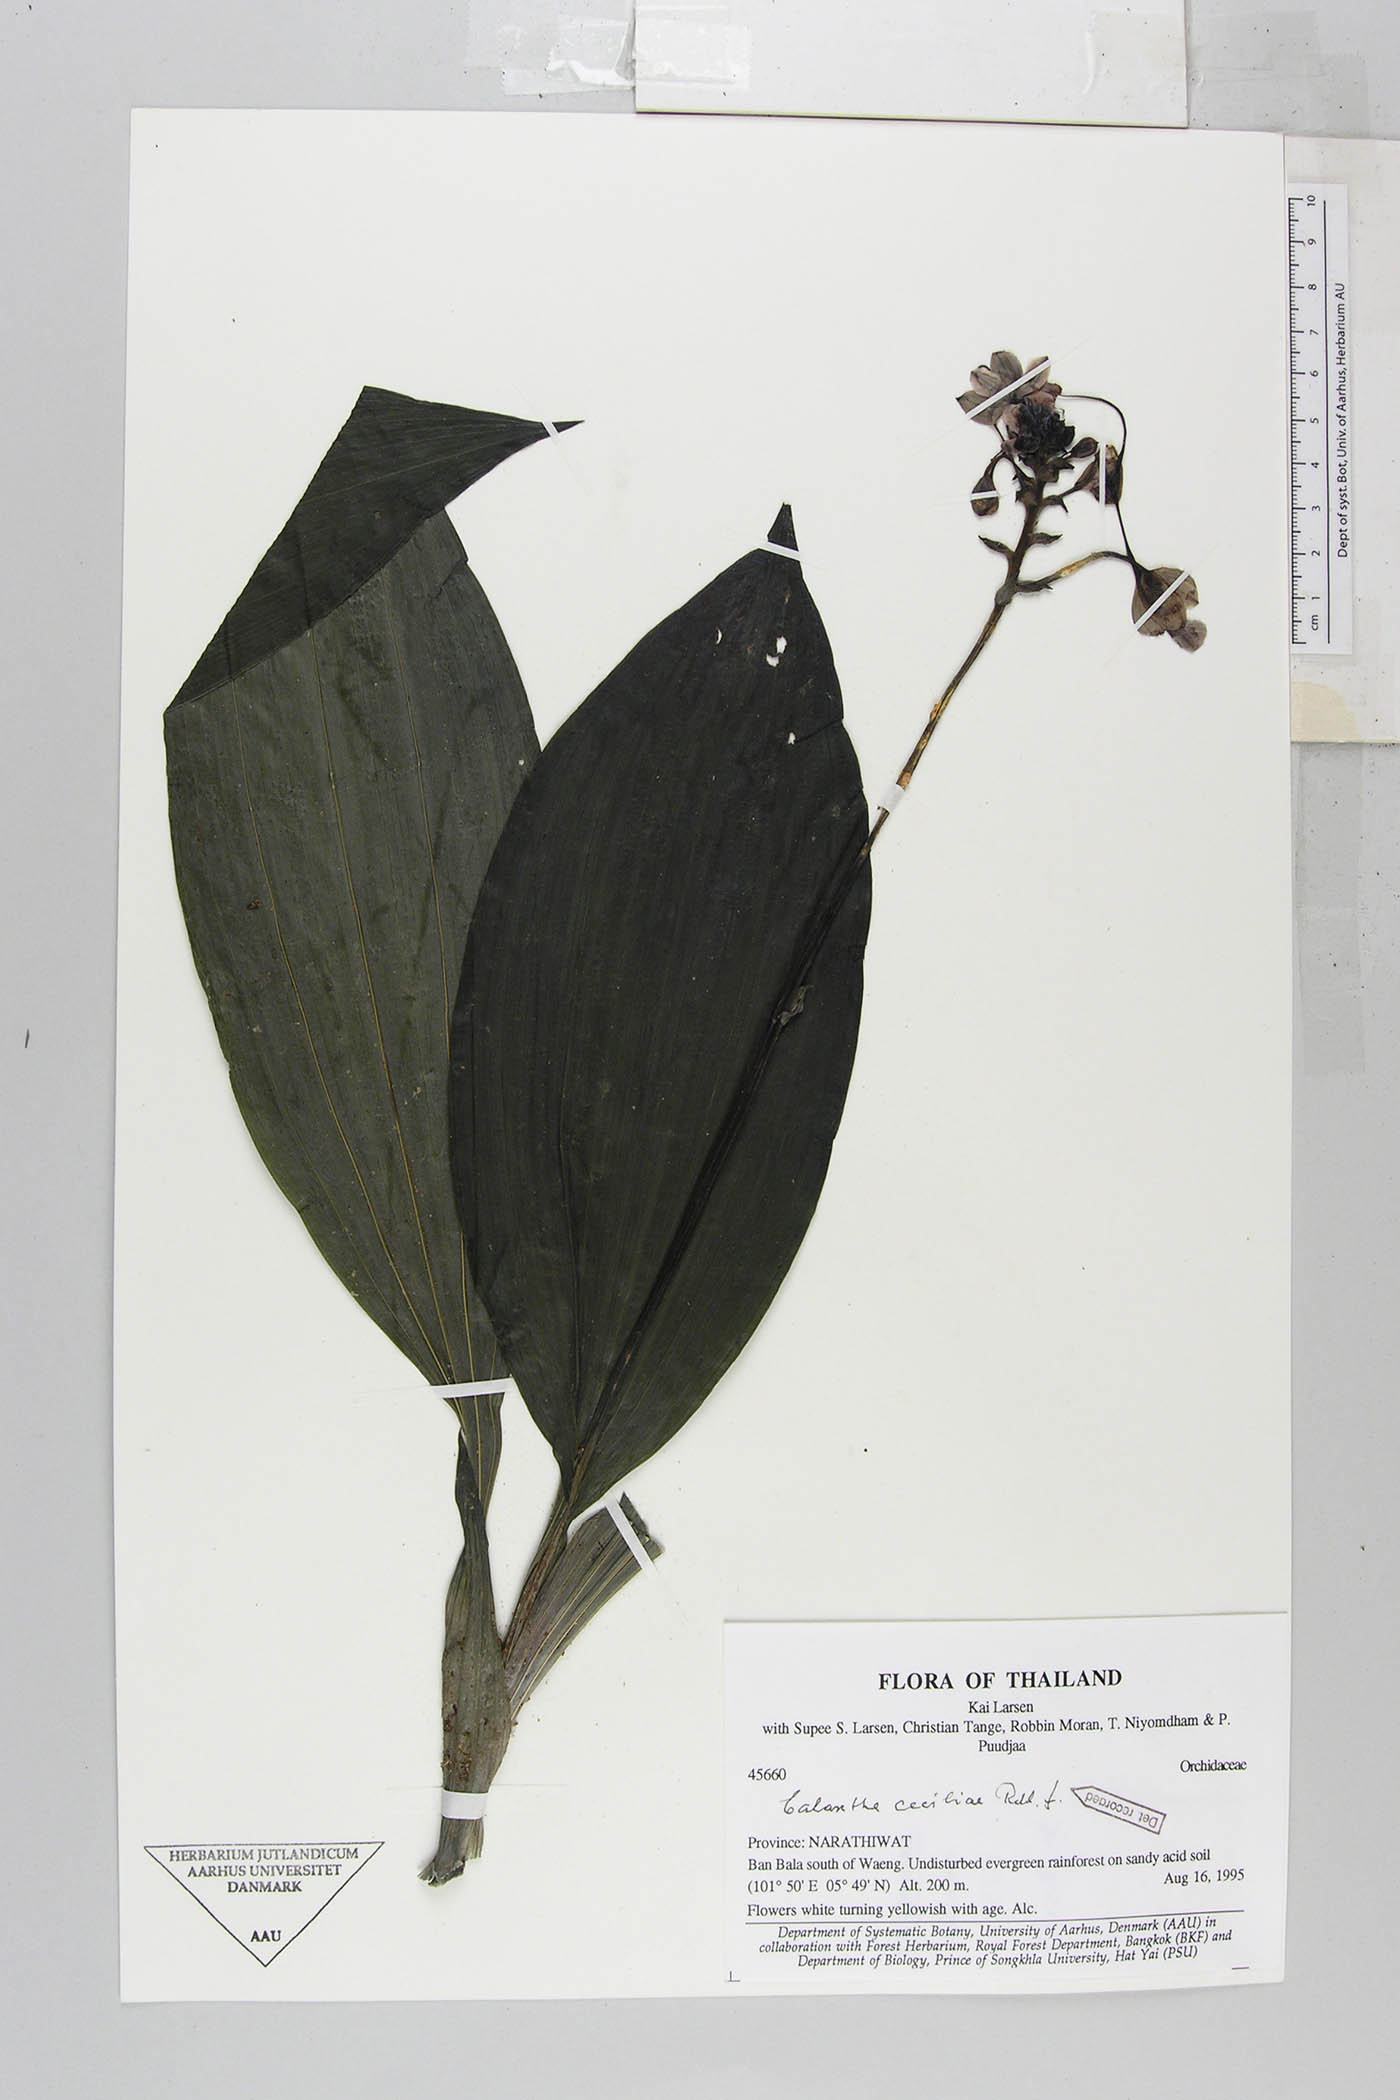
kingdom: Plantae
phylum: Tracheophyta
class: Liliopsida
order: Asparagales
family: Orchidaceae
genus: Calanthe
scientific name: Calanthe ceciliae
